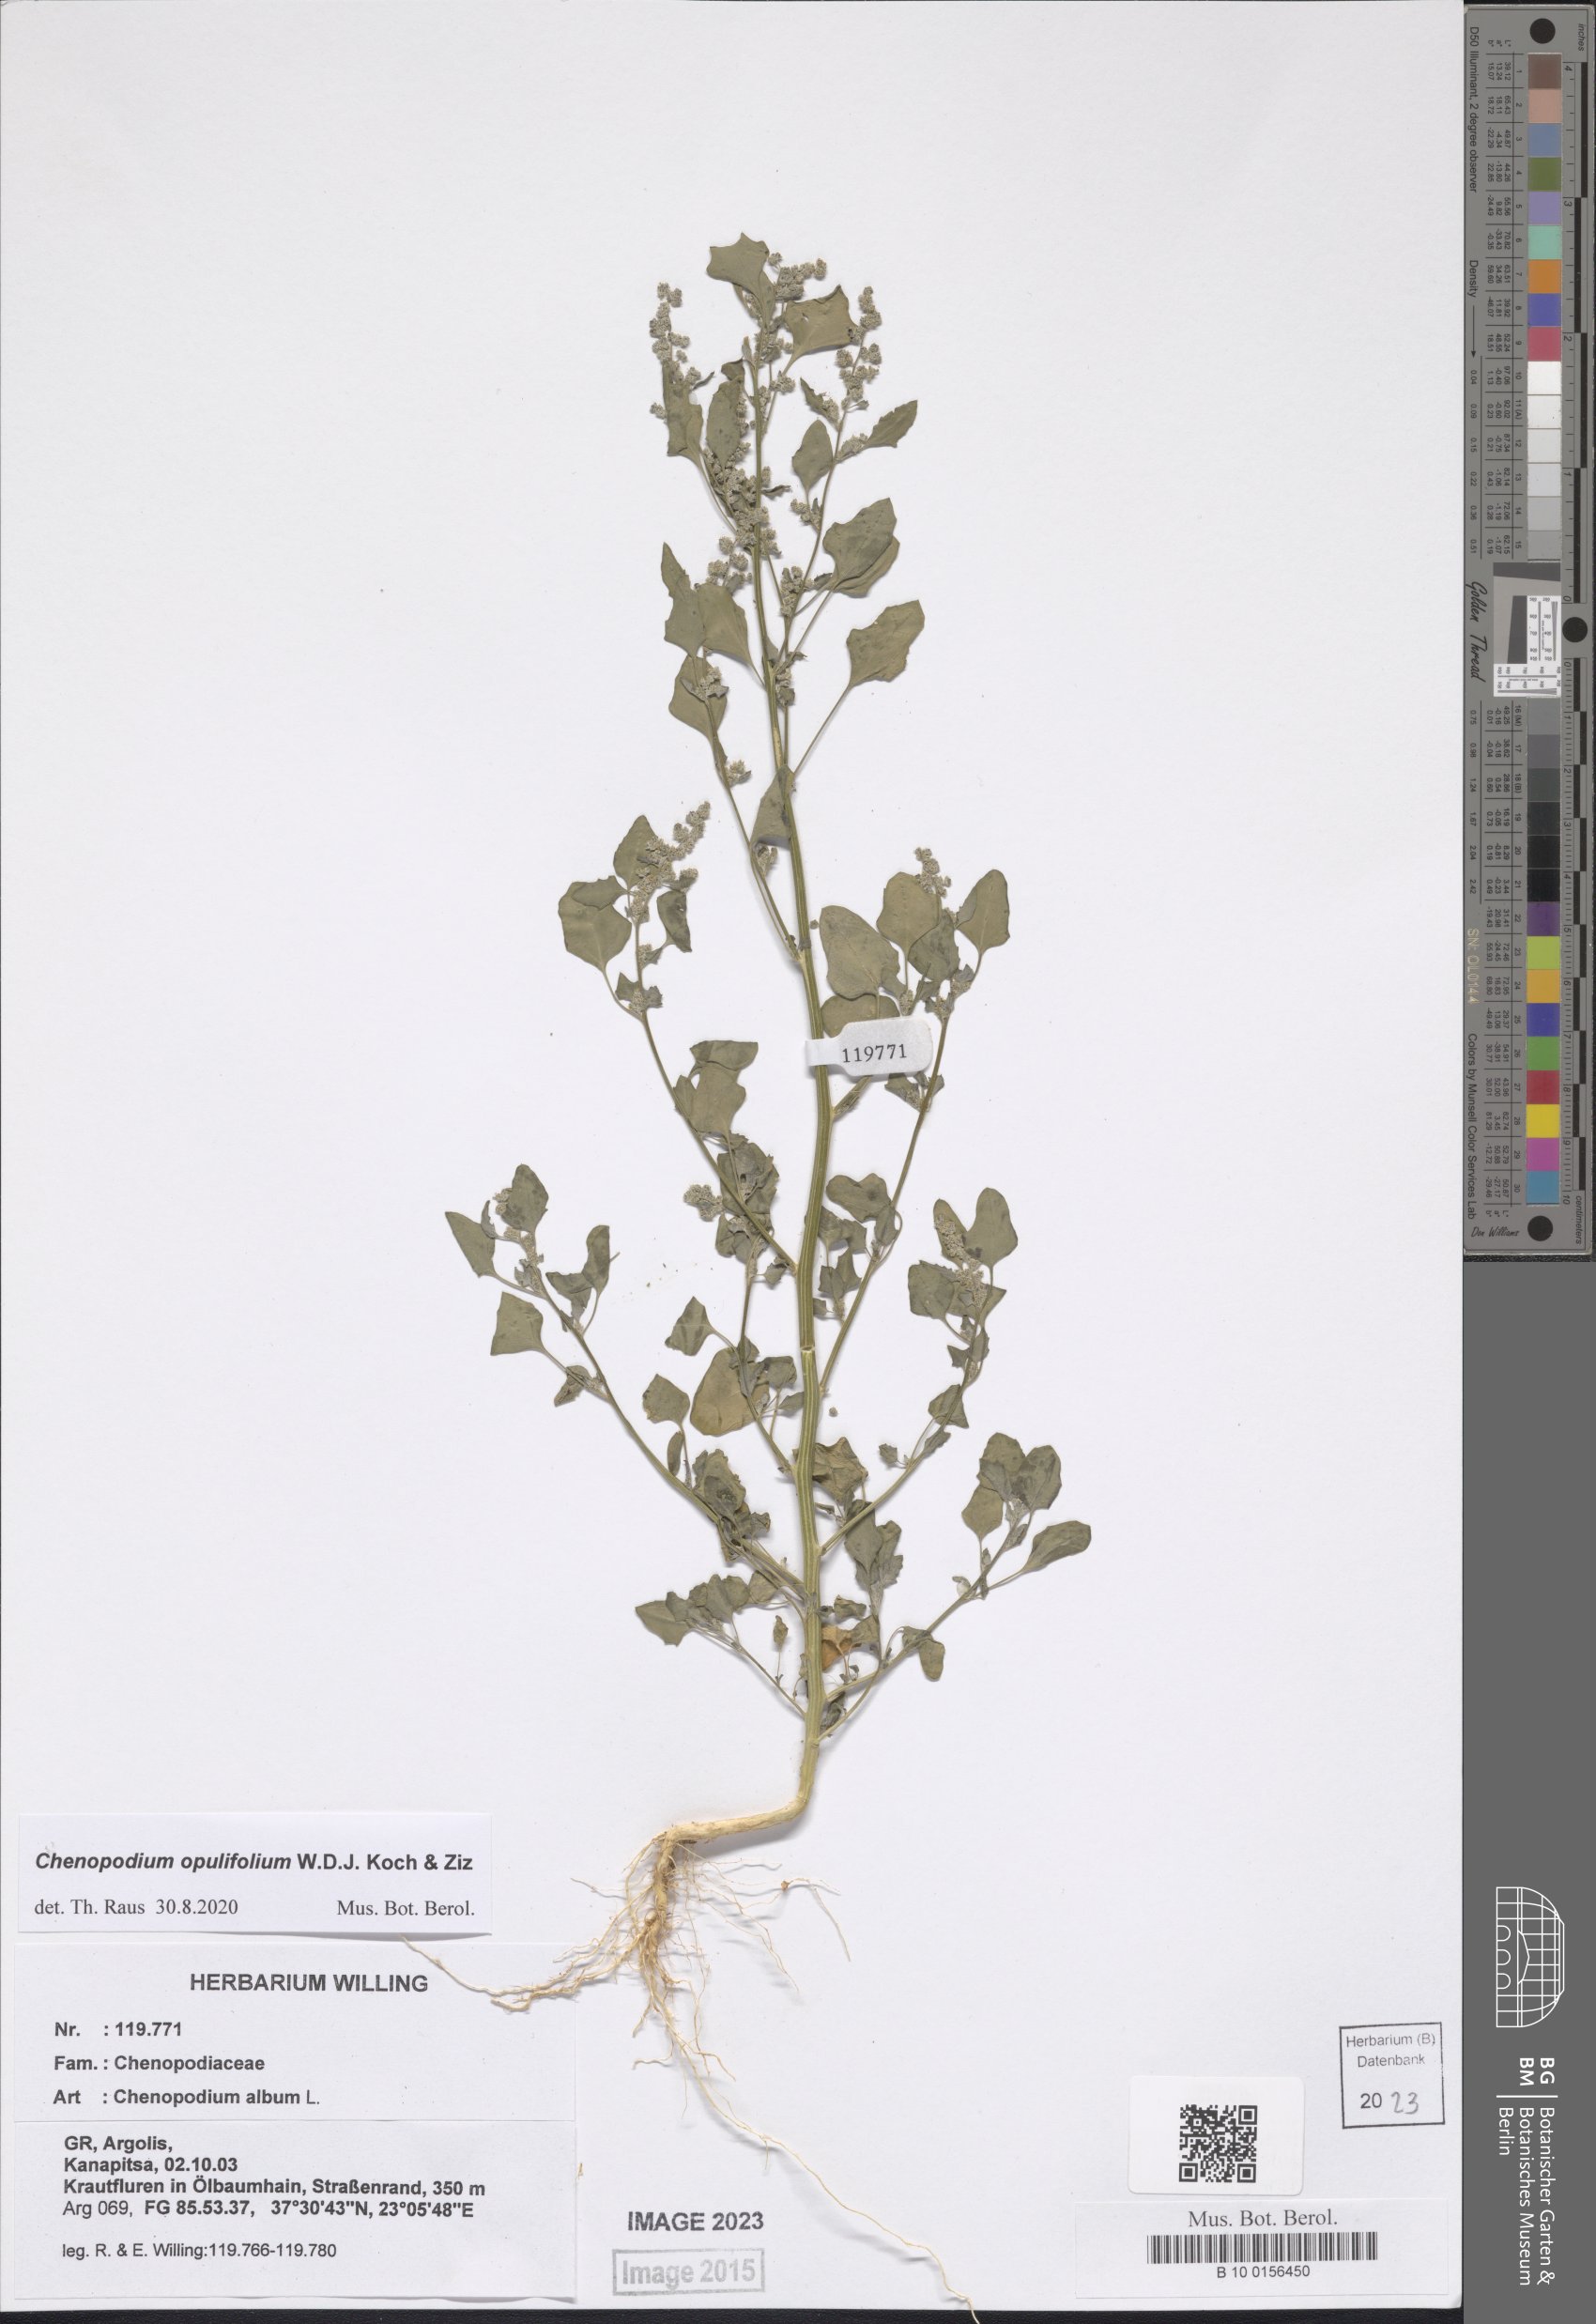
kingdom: Plantae
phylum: Tracheophyta
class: Magnoliopsida
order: Caryophyllales
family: Amaranthaceae
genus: Chenopodium
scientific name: Chenopodium opulifolium
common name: Grey goosefoot
